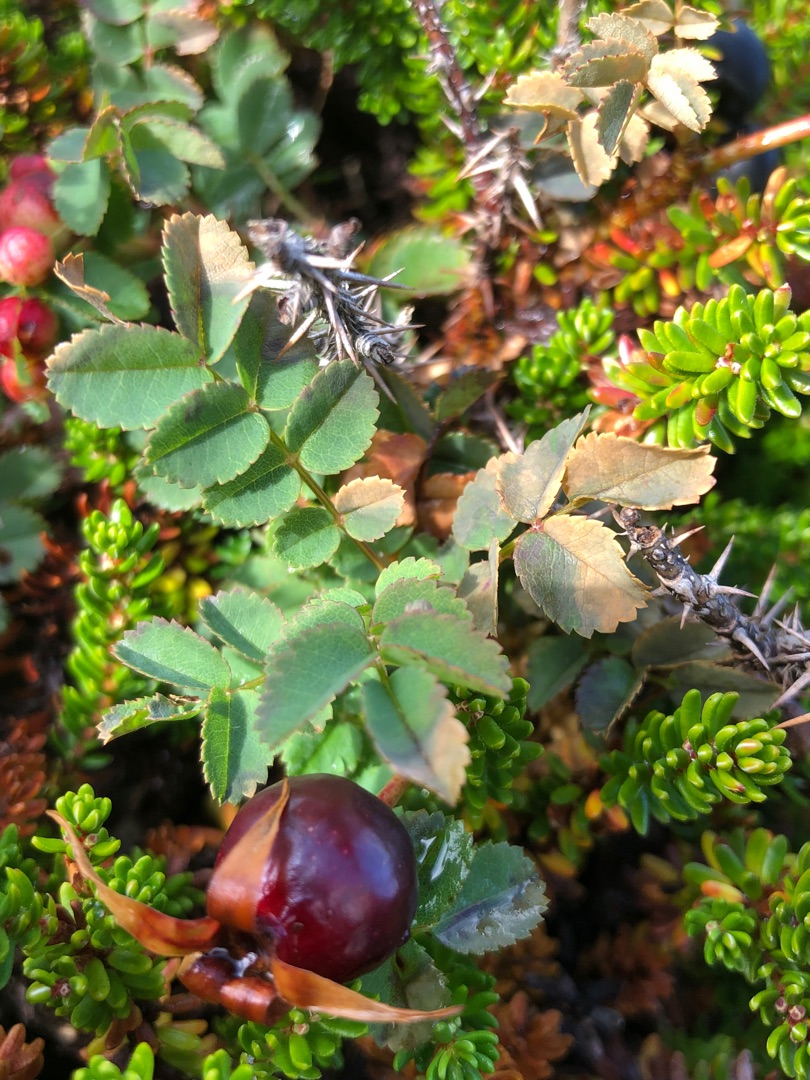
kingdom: Plantae
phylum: Tracheophyta
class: Magnoliopsida
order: Rosales
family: Rosaceae
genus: Rosa
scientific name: Rosa spinosissima
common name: Klit-rose
